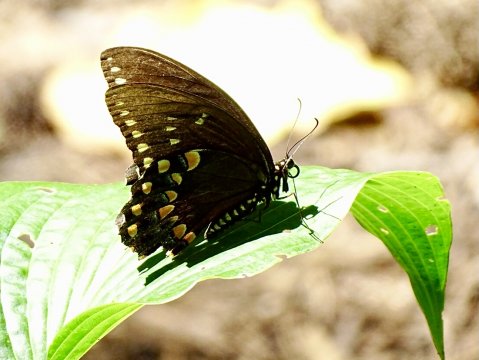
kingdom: Animalia
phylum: Arthropoda
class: Insecta
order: Lepidoptera
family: Papilionidae
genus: Pterourus
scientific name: Pterourus troilus
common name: Spicebush Swallowtail
